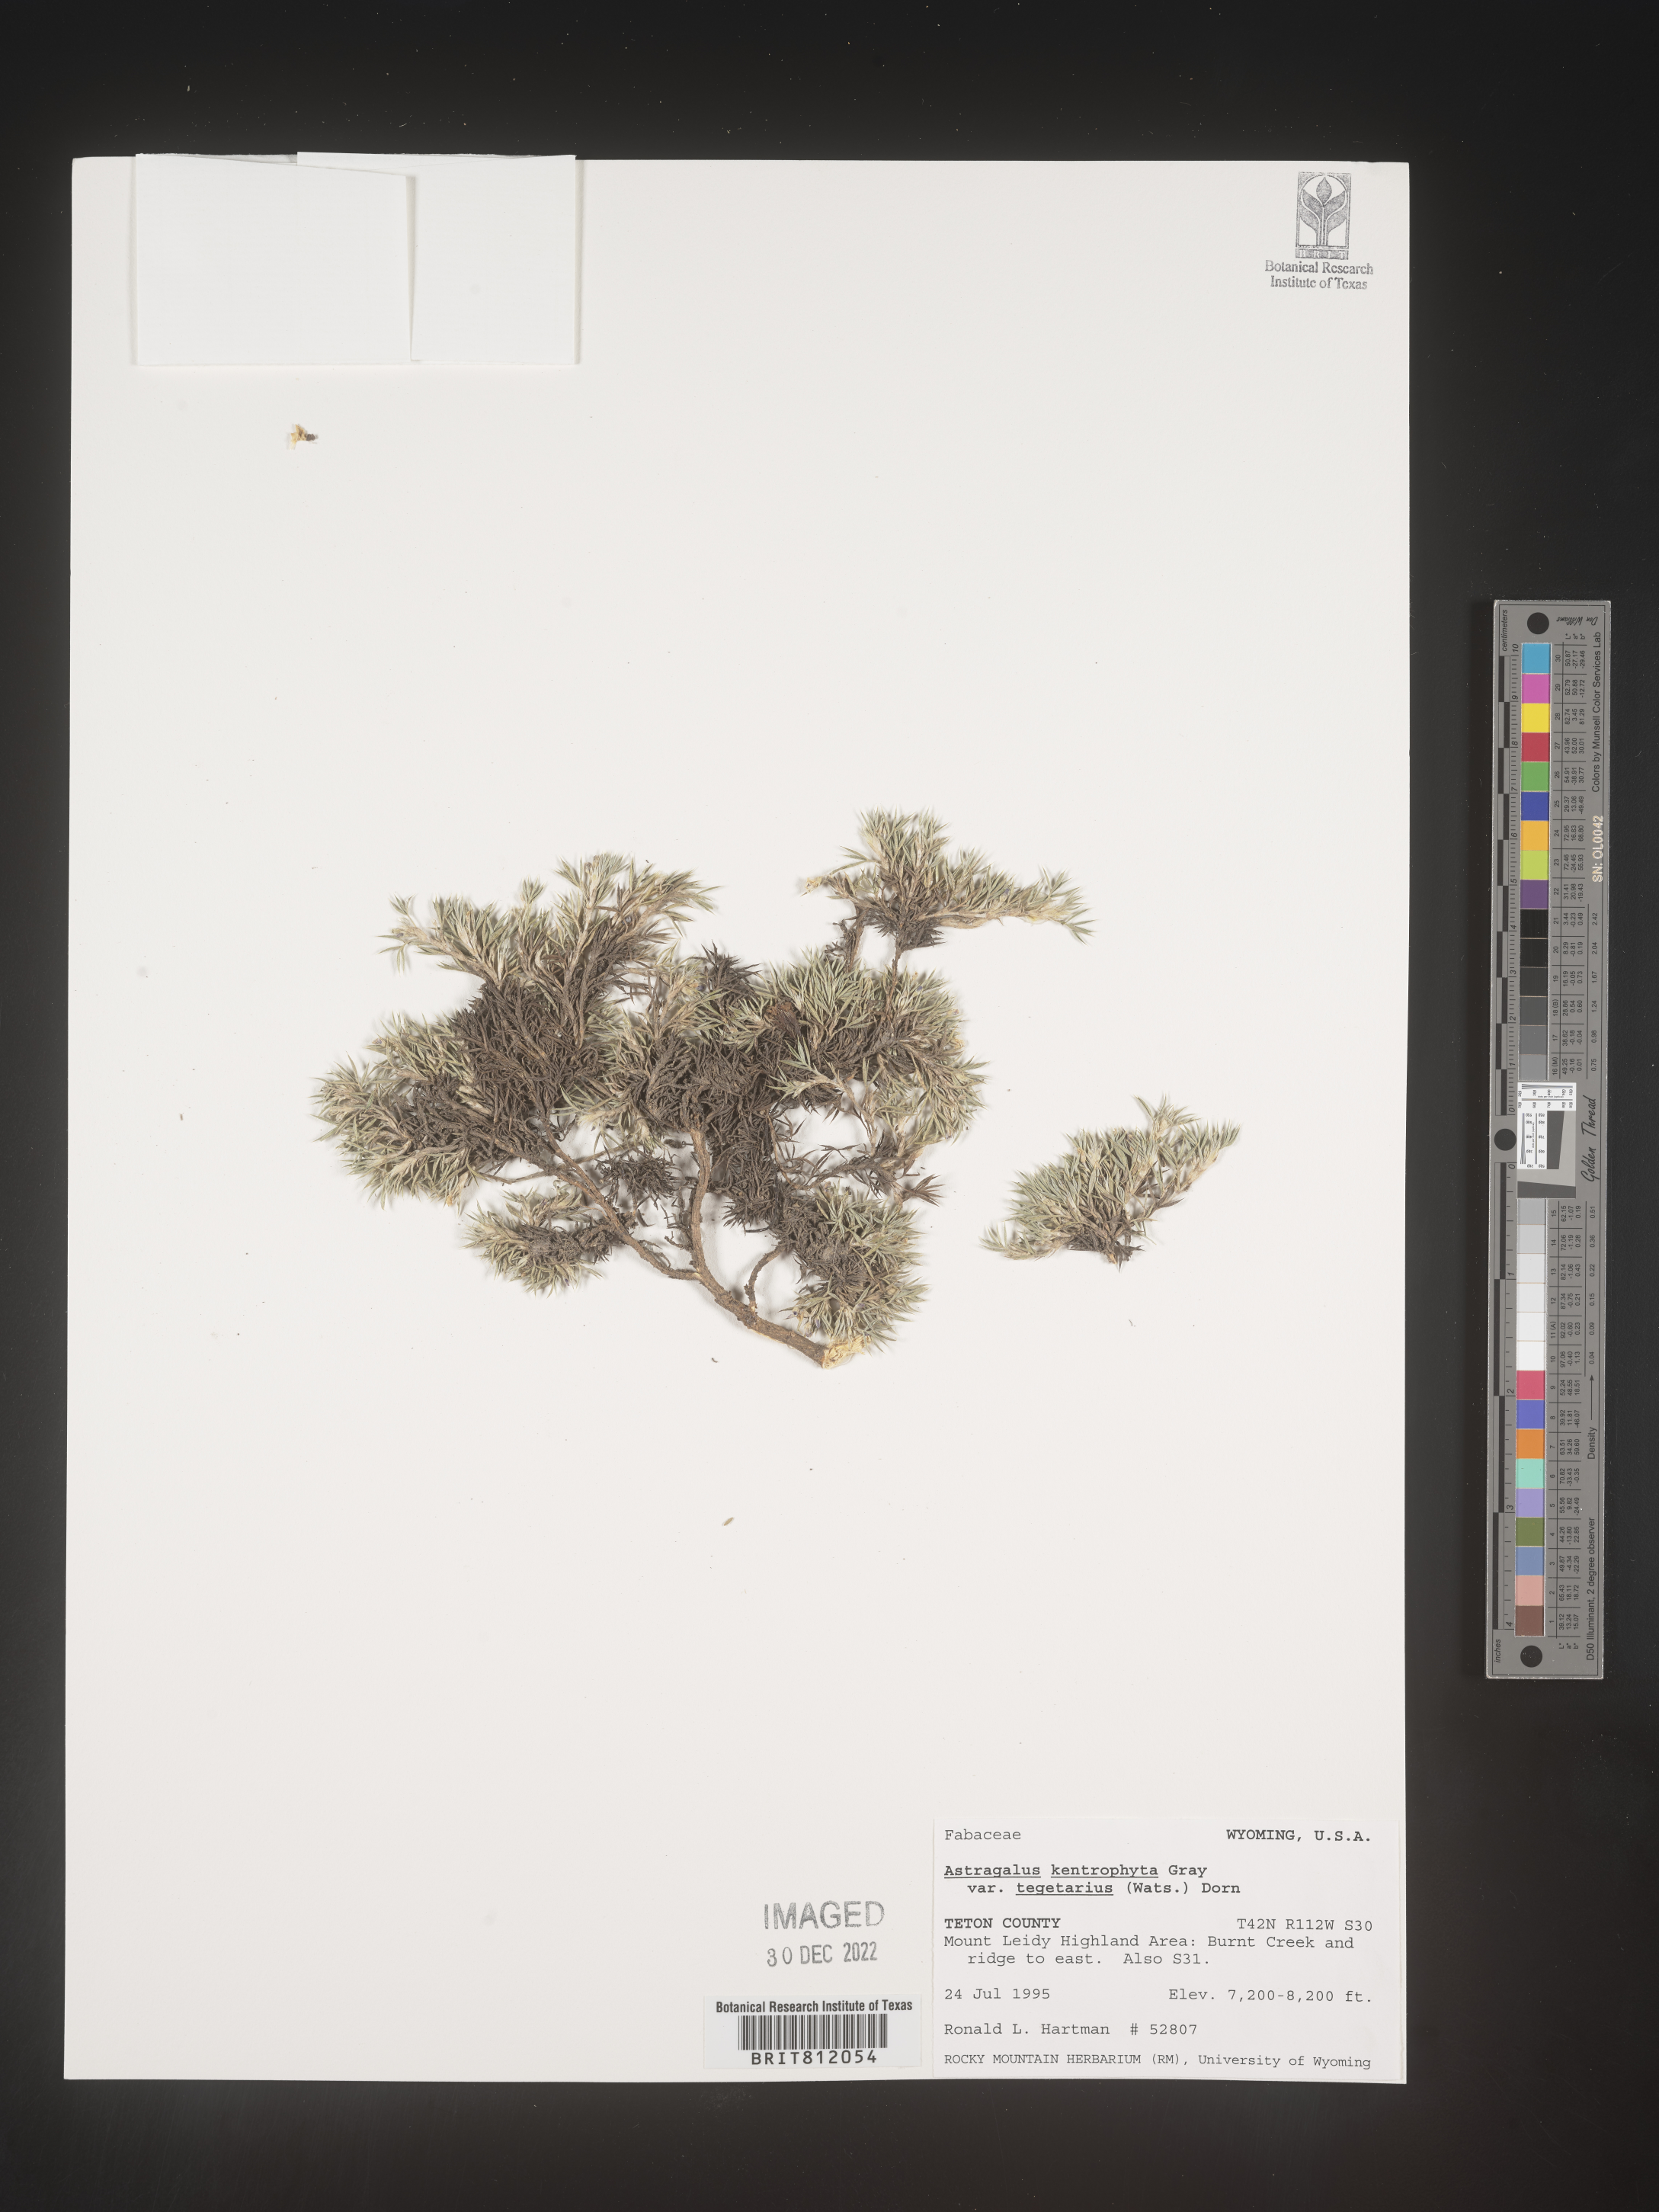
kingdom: Plantae
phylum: Tracheophyta
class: Magnoliopsida
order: Fabales
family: Fabaceae
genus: Astragalus
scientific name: Astragalus kentrophyta
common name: Prickly milk-vetch
